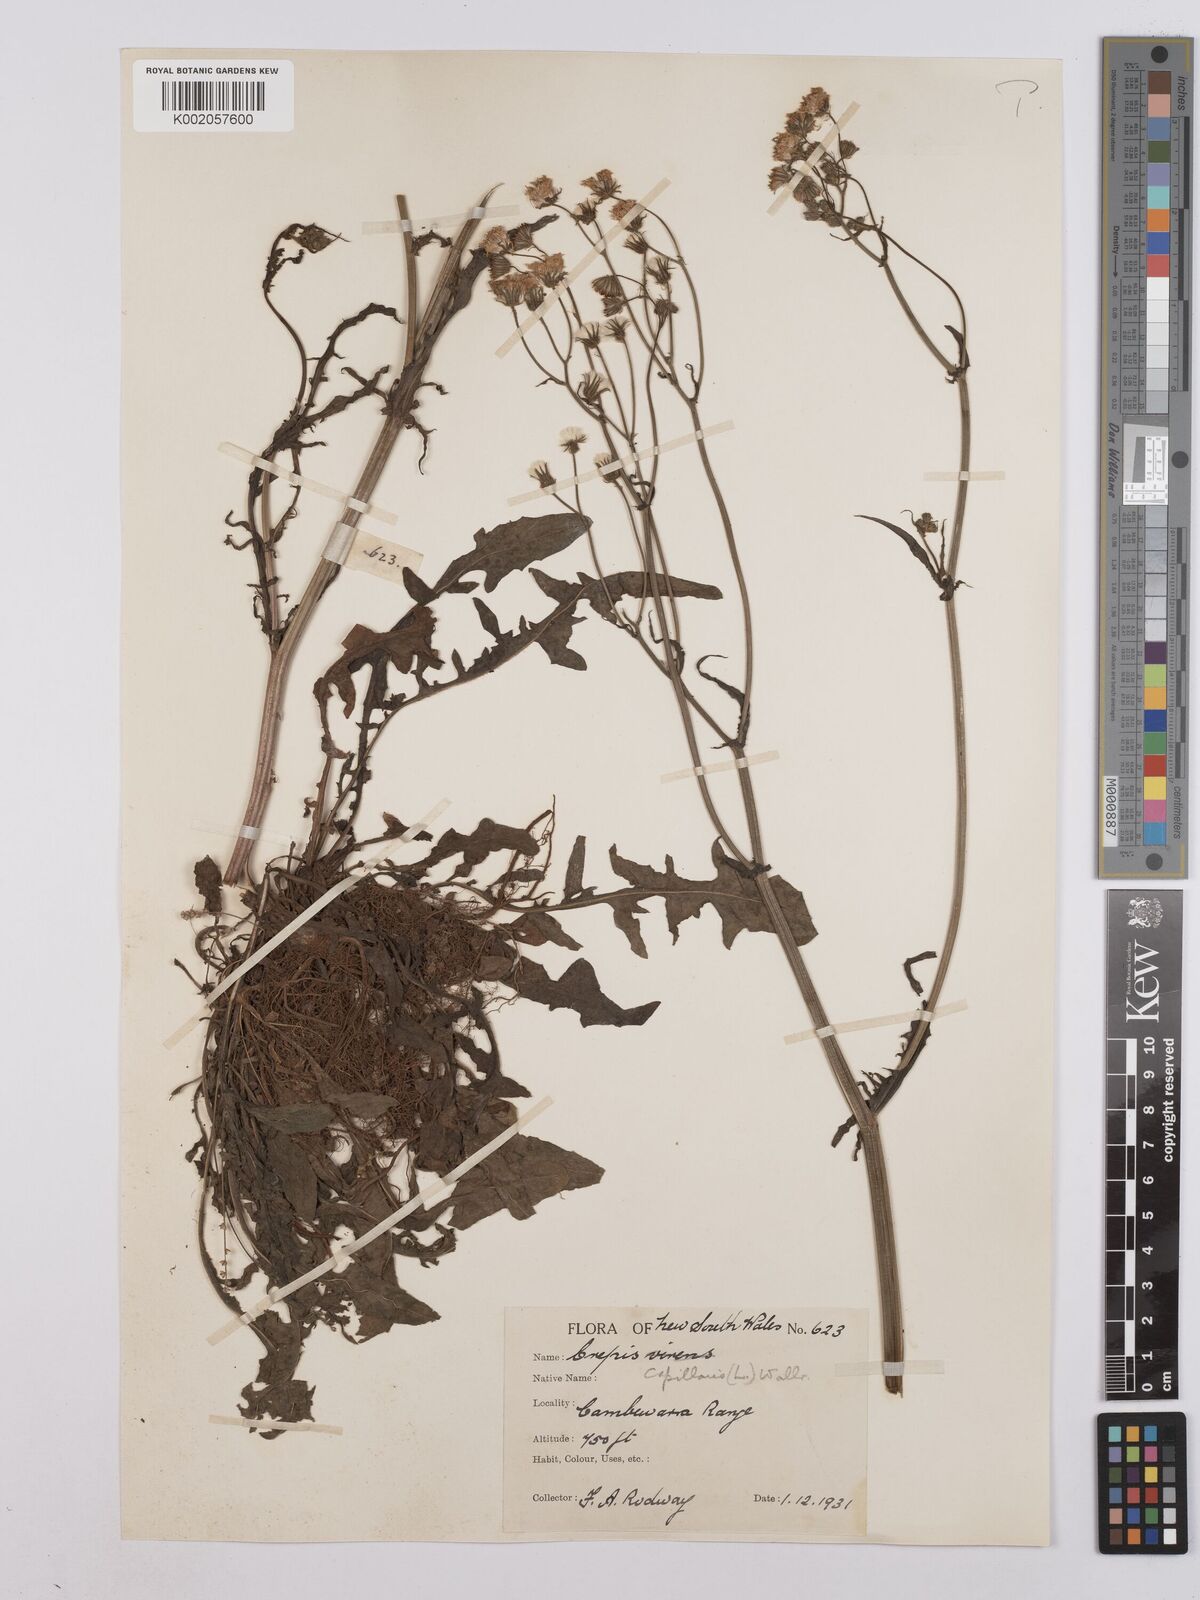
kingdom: Plantae
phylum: Tracheophyta
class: Magnoliopsida
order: Asterales
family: Asteraceae
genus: Crepis
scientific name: Crepis capillaris
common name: Smooth hawksbeard
